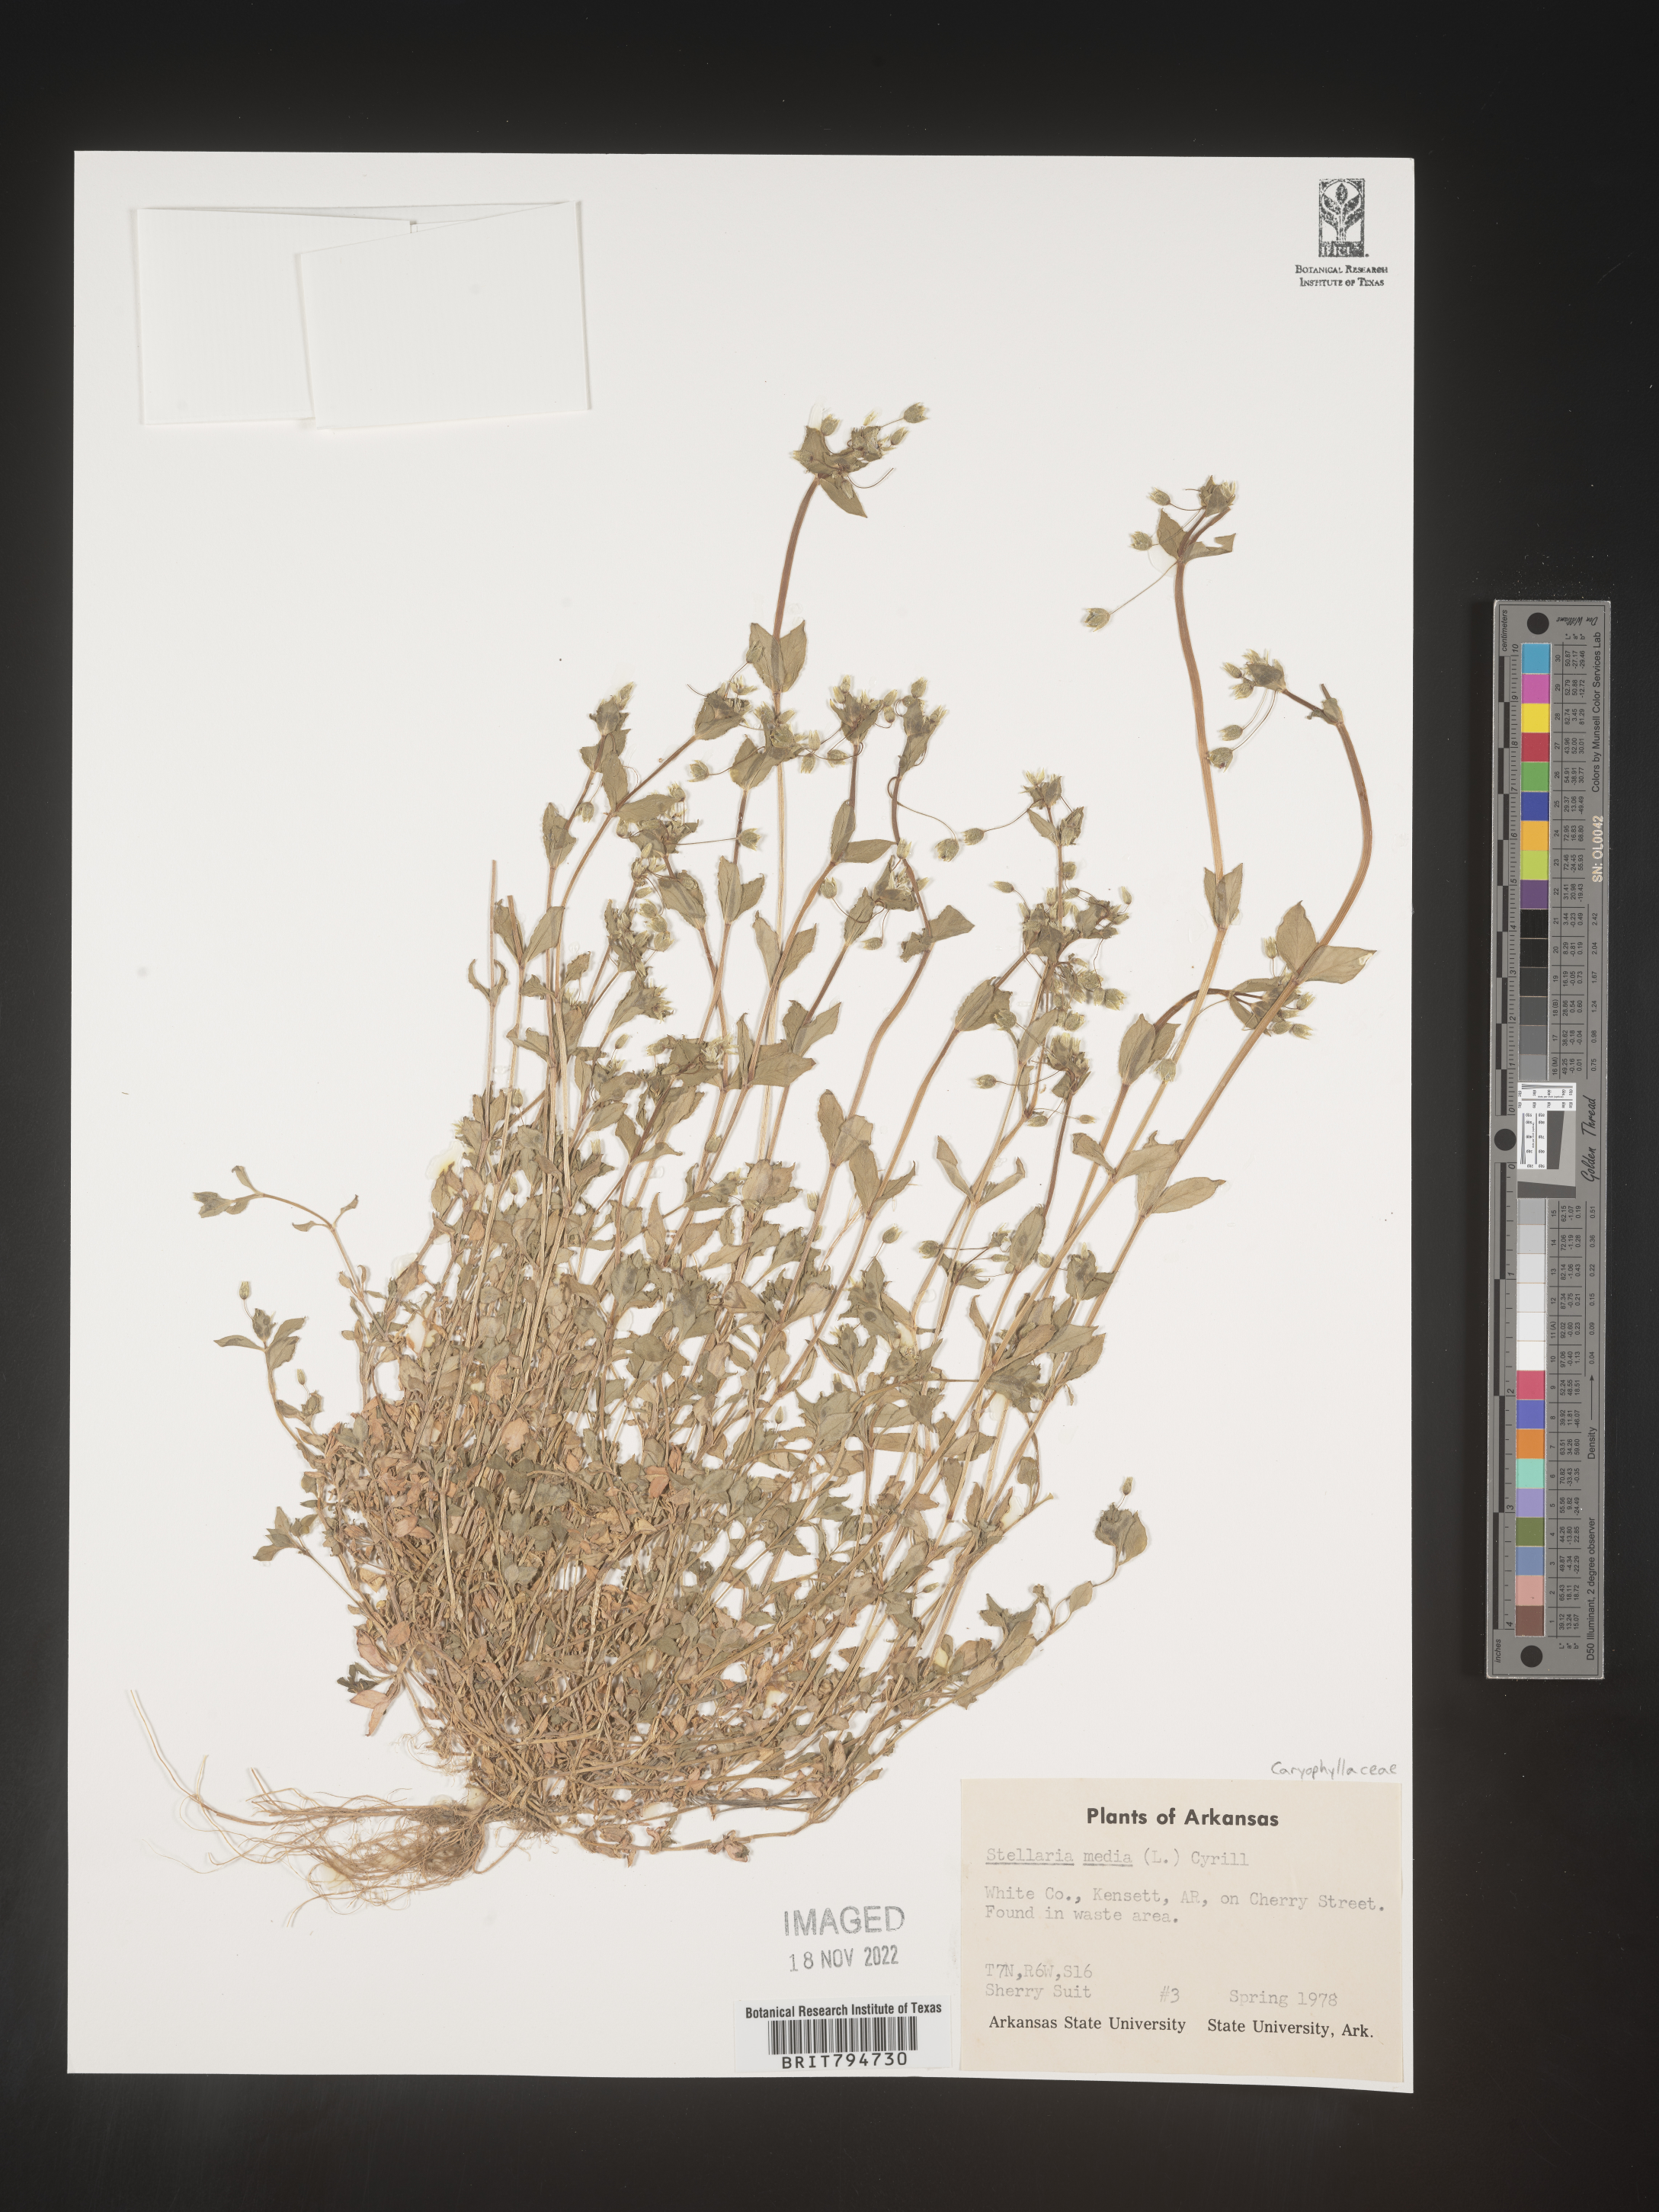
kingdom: Plantae
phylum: Tracheophyta
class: Magnoliopsida
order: Caryophyllales
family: Caryophyllaceae
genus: Stellaria
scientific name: Stellaria media
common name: Common chickweed
